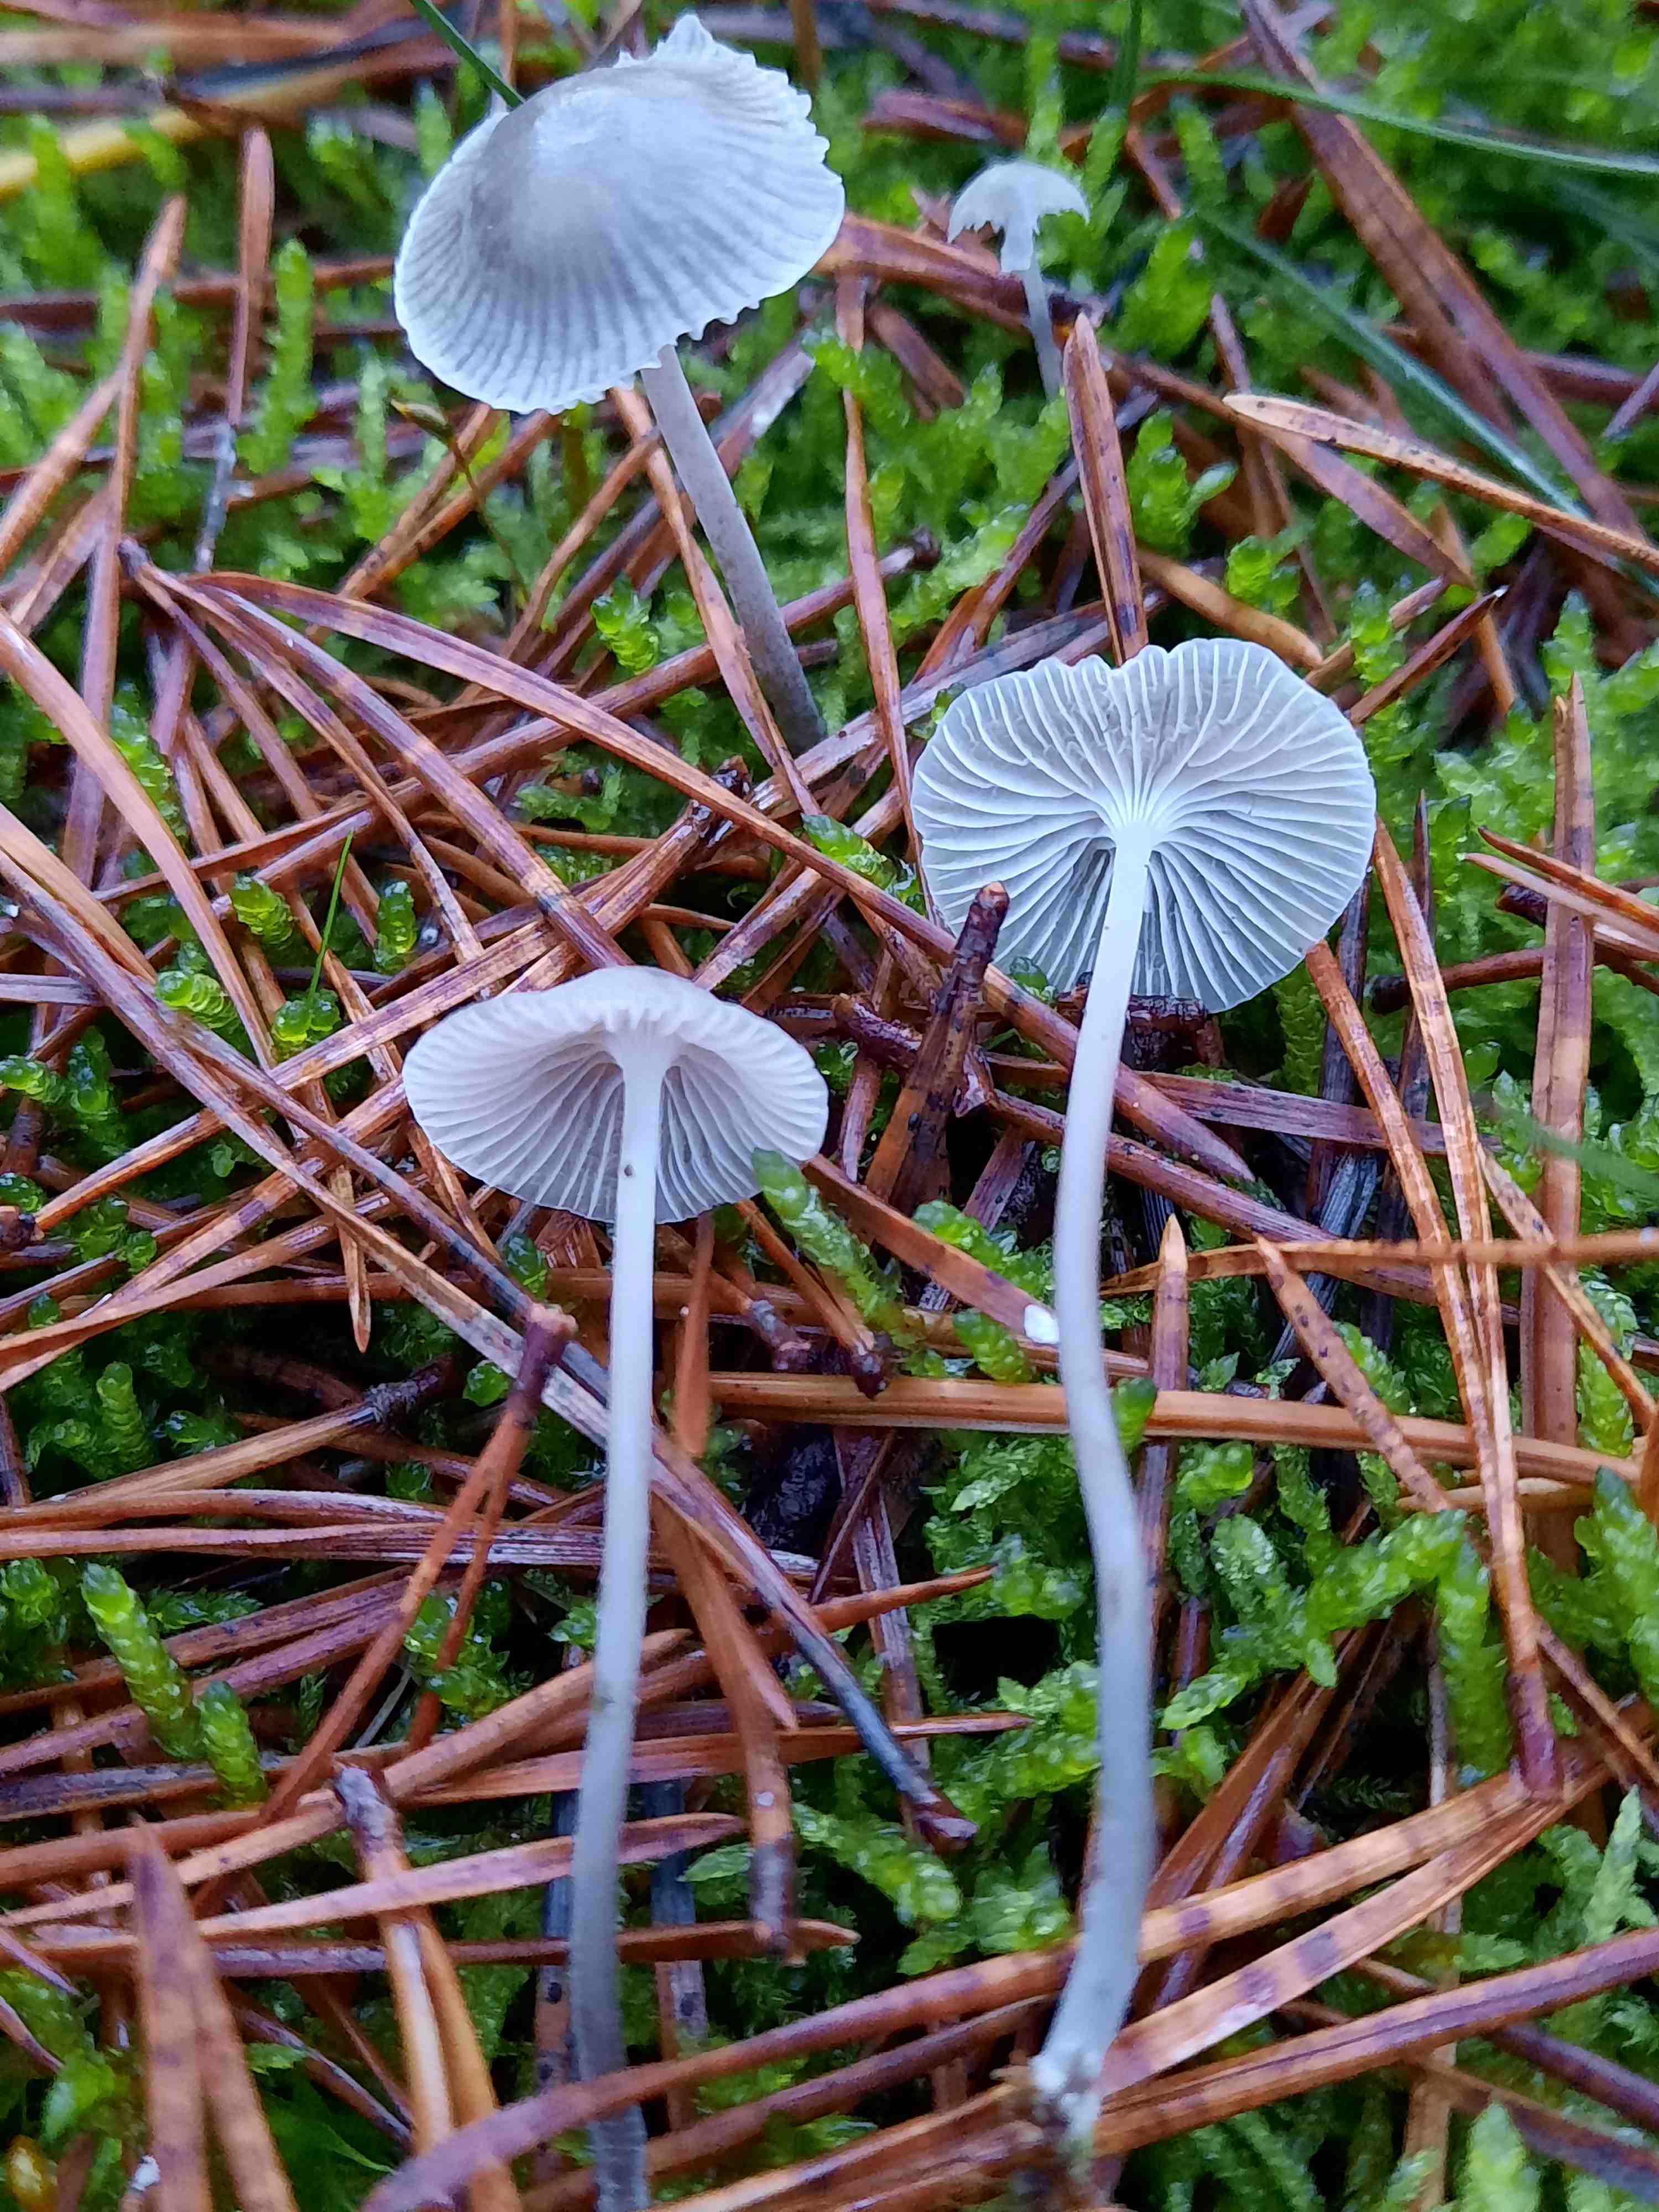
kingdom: Fungi
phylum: Basidiomycota
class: Agaricomycetes
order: Agaricales
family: Mycenaceae
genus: Mycena
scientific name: Mycena cinerella
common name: mel-huesvamp
